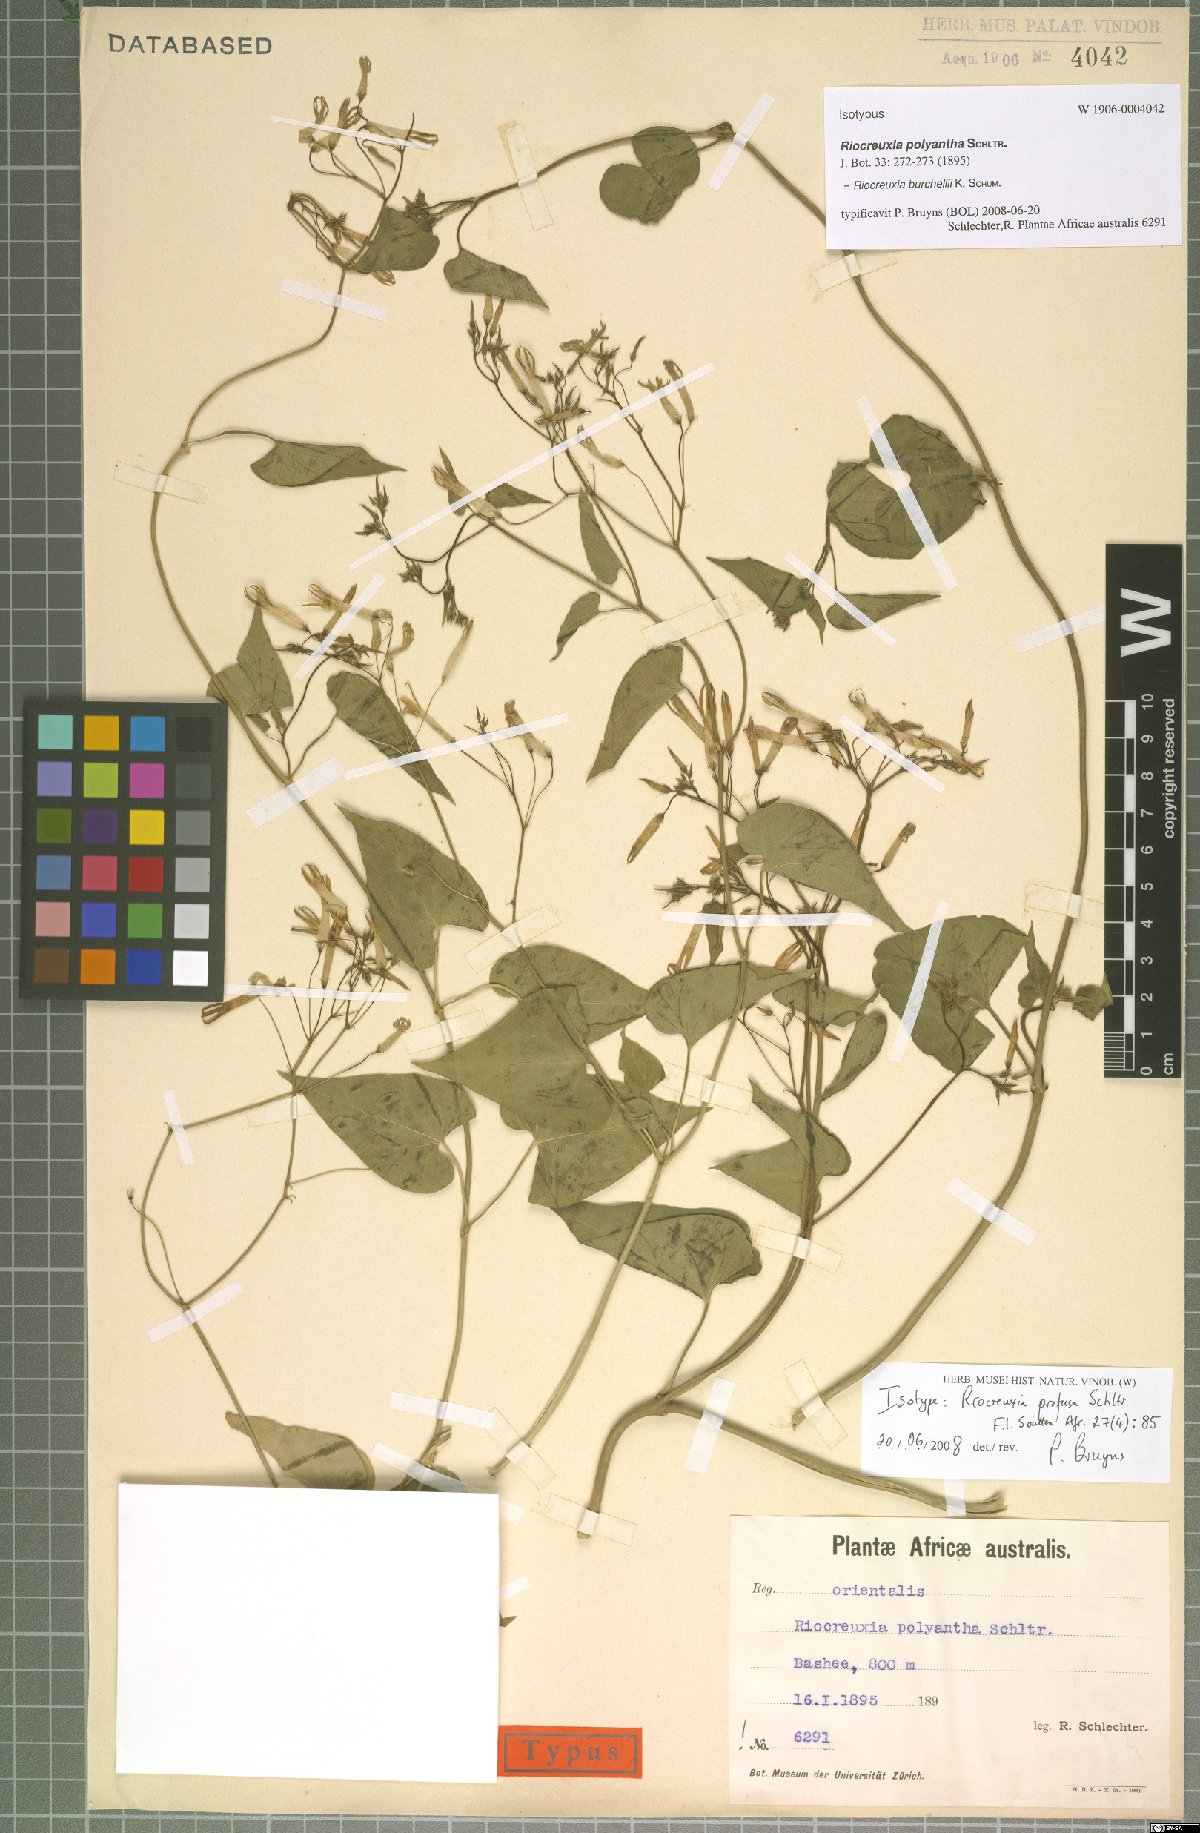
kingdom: Plantae
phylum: Tracheophyta
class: Magnoliopsida
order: Gentianales
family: Apocynaceae
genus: Riocreuxia
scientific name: Riocreuxia polyantha
